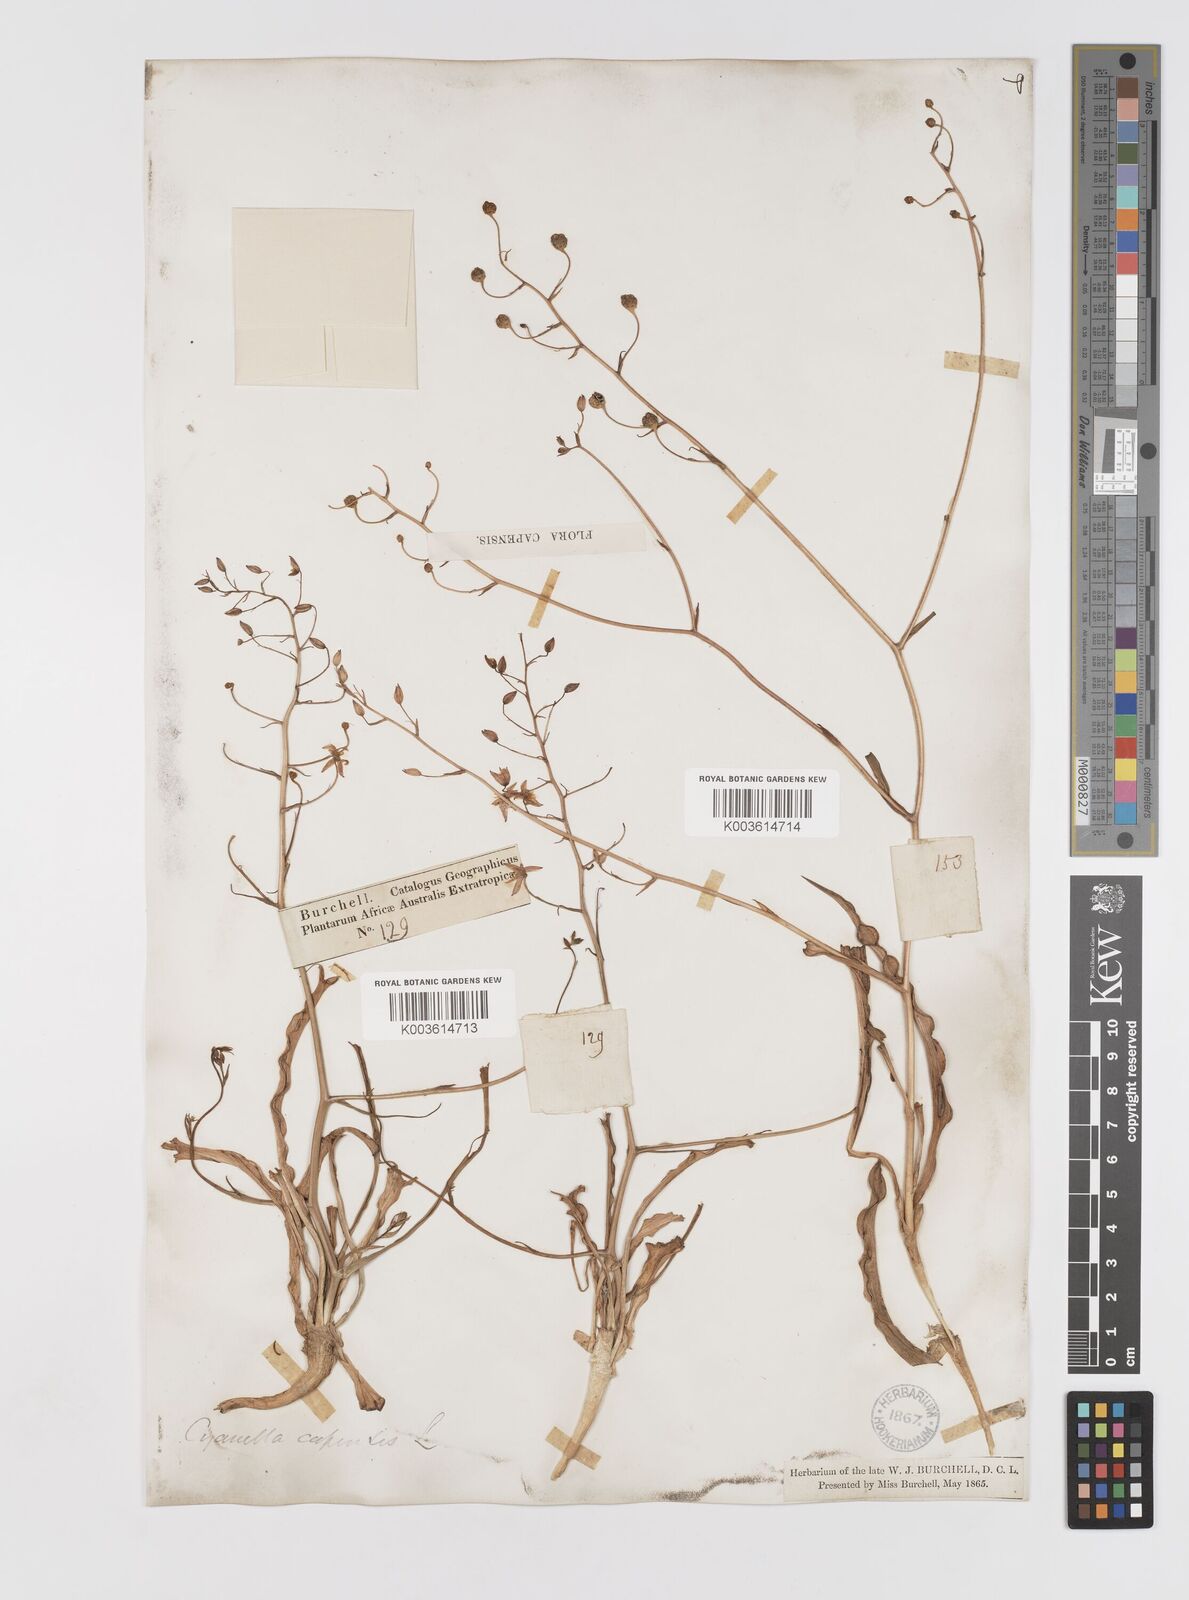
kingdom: Plantae
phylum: Tracheophyta
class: Liliopsida
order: Asparagales
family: Tecophilaeaceae
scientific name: Tecophilaeaceae
